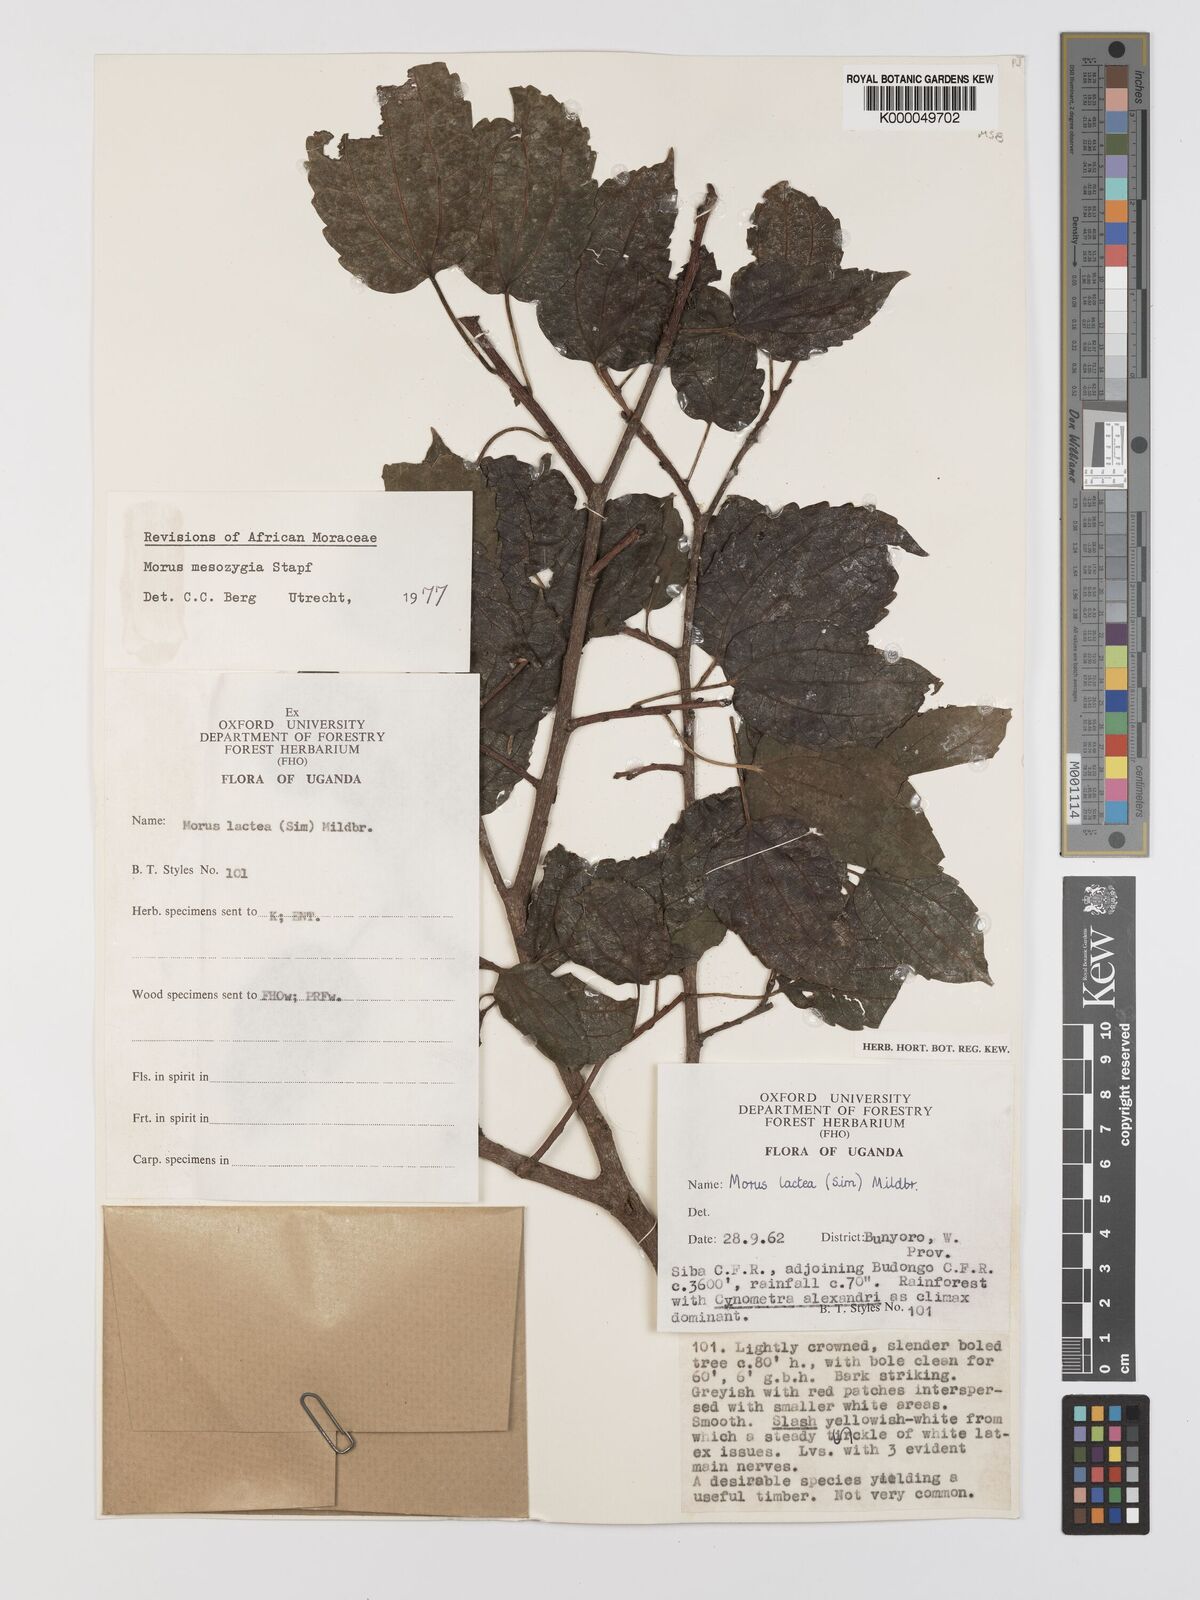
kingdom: Plantae
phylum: Tracheophyta
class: Magnoliopsida
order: Rosales
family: Moraceae
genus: Afromorus
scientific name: Afromorus mesozygia
